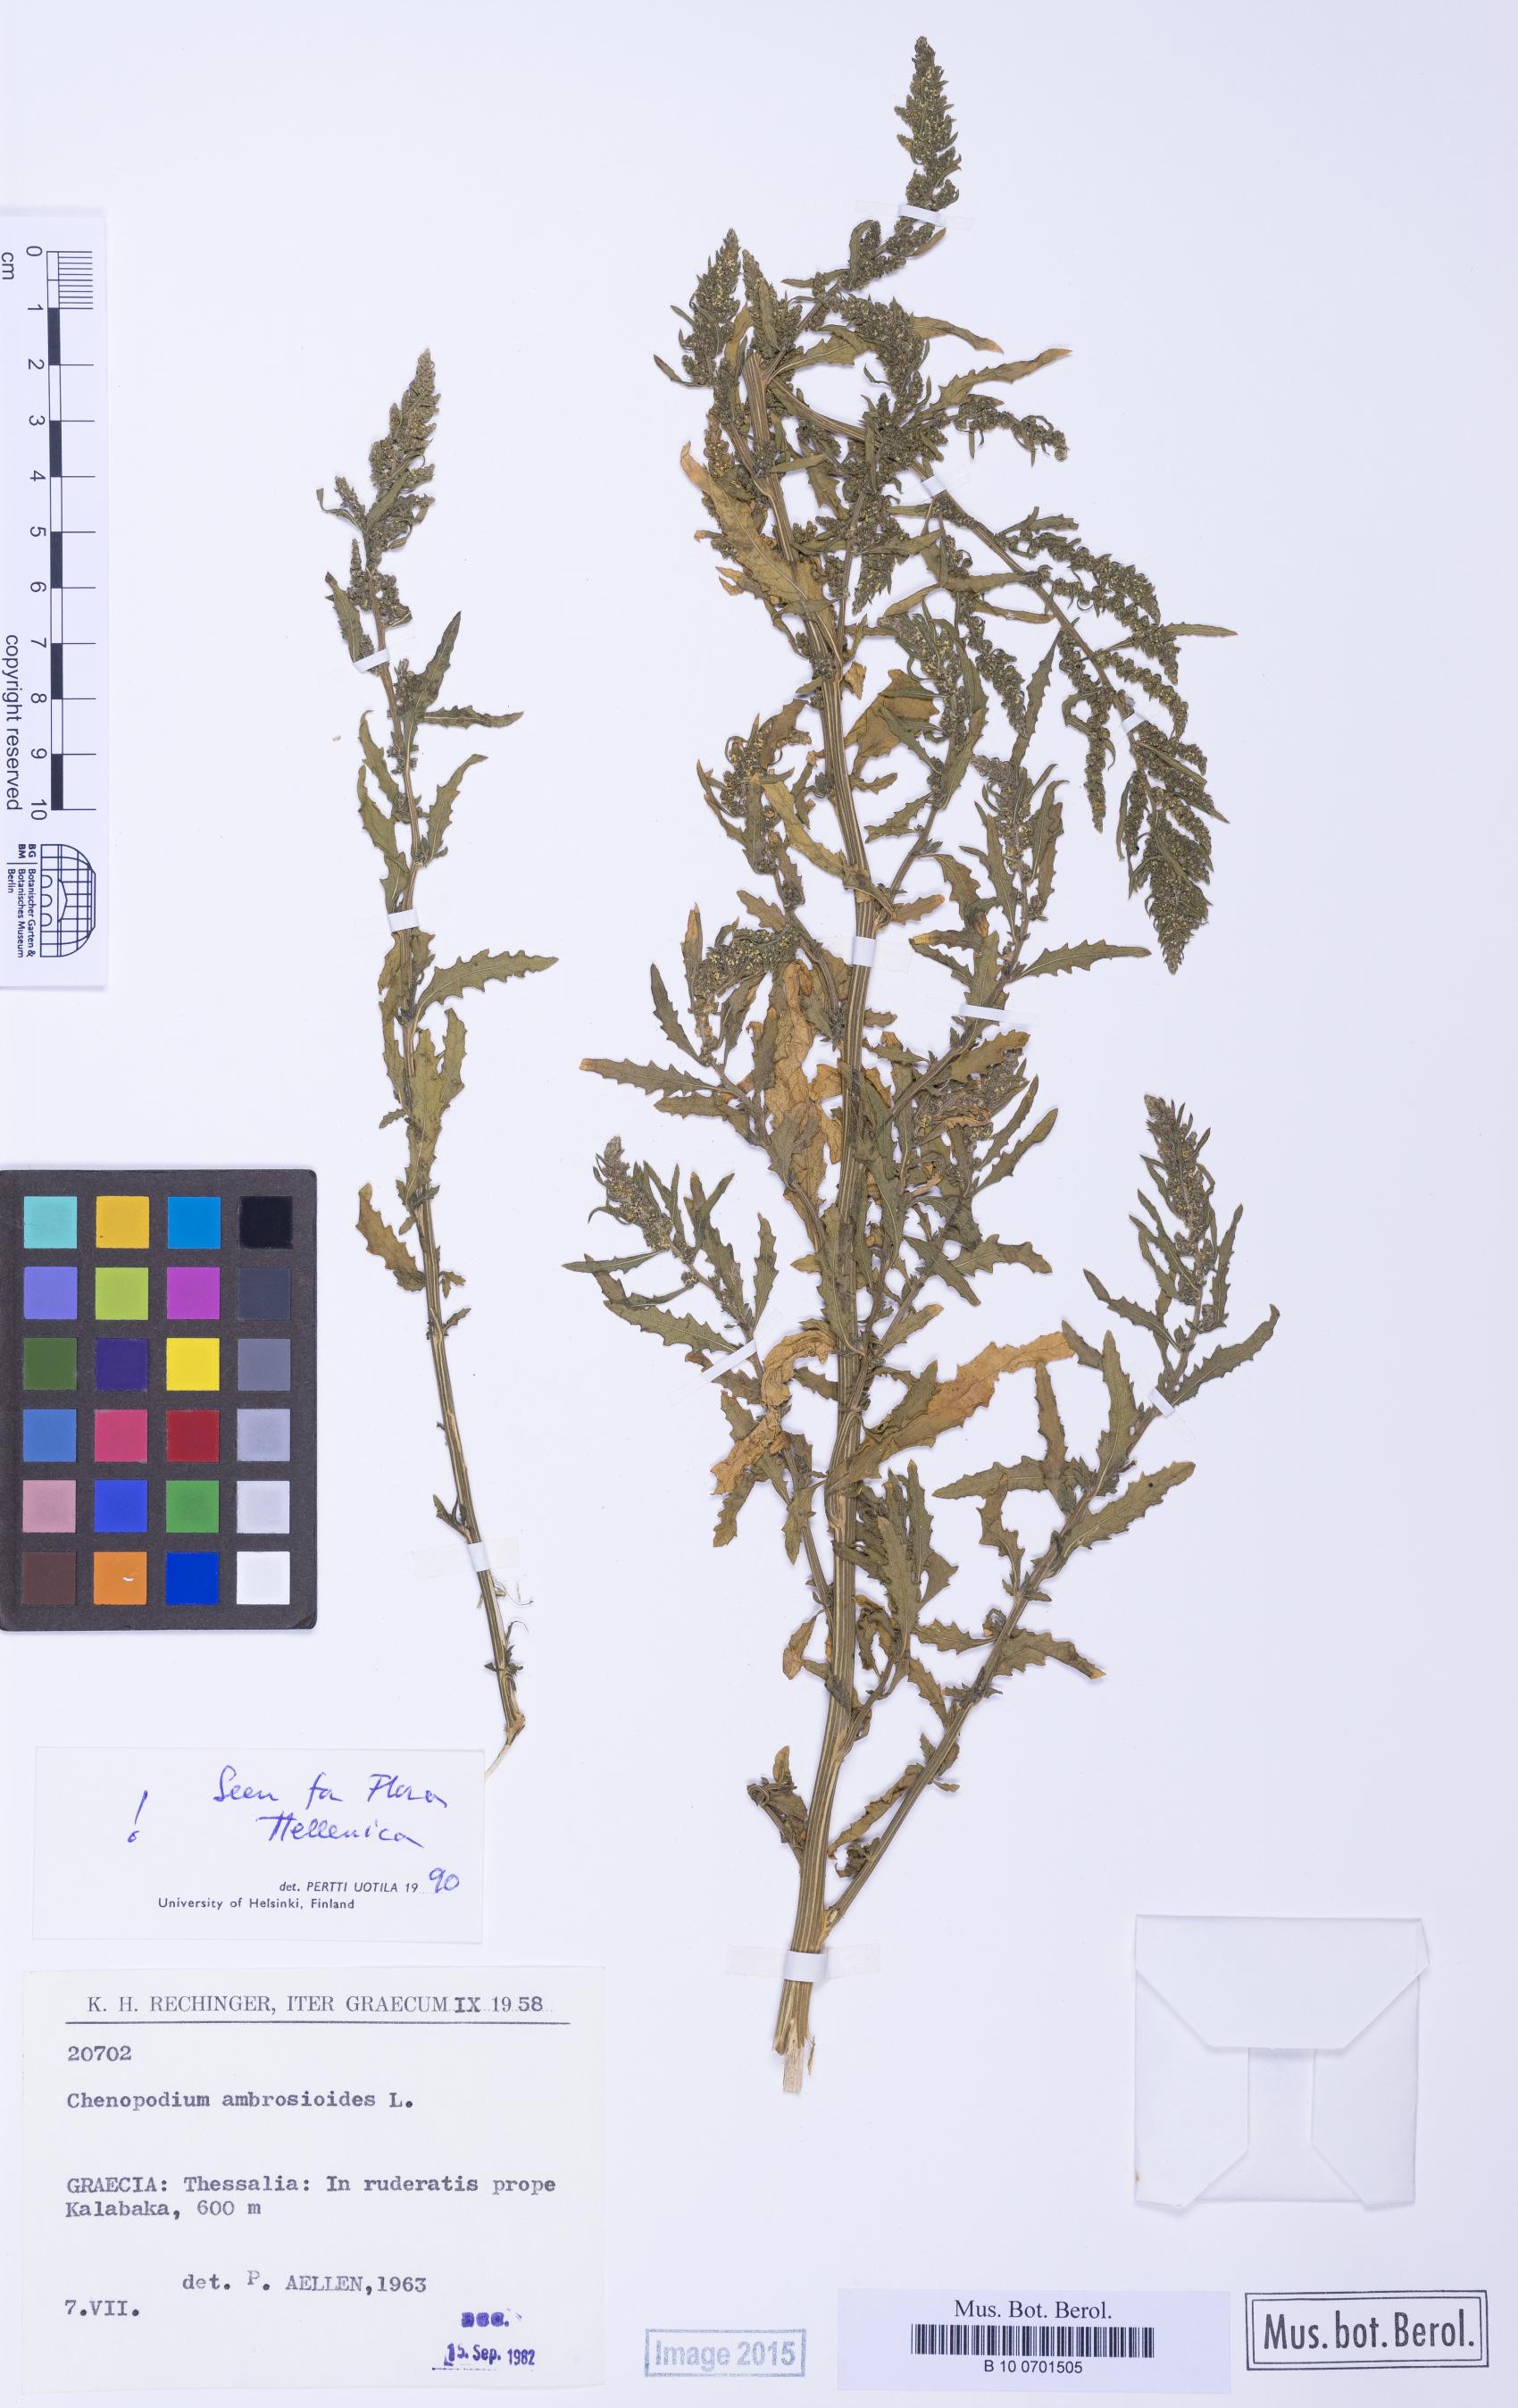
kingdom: Plantae
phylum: Tracheophyta
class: Magnoliopsida
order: Caryophyllales
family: Amaranthaceae
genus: Dysphania
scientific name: Dysphania ambrosioides
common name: Wormseed
